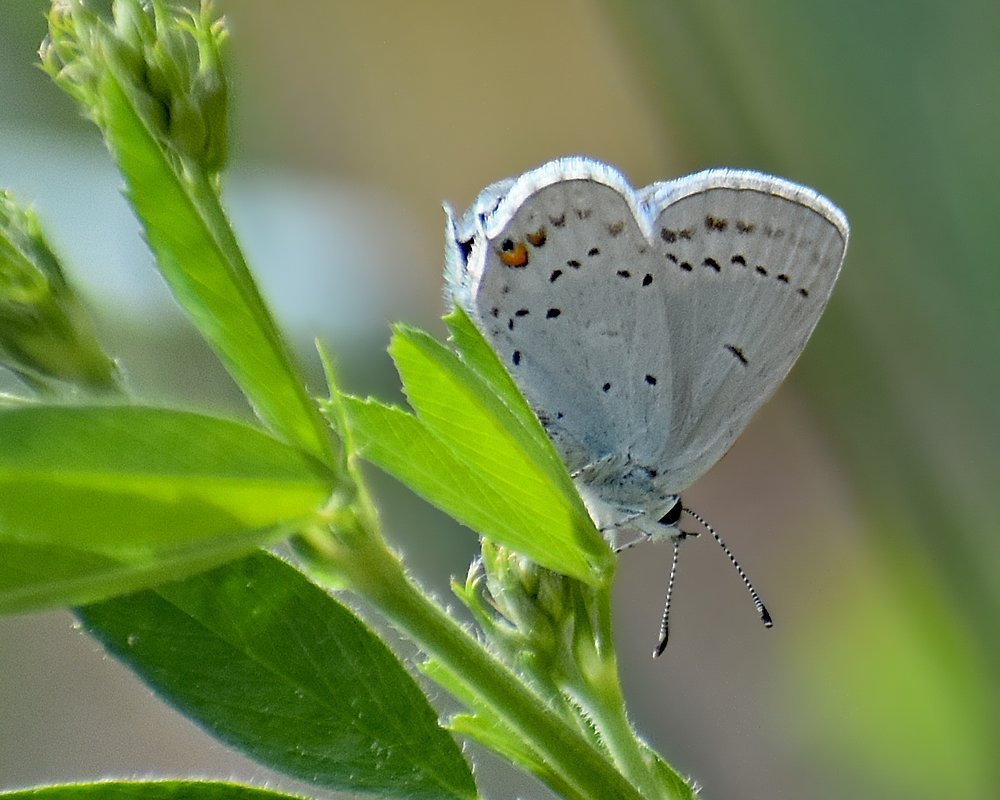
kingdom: Animalia
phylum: Arthropoda
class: Insecta
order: Lepidoptera
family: Lycaenidae
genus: Elkalyce
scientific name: Elkalyce comyntas
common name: Eastern Tailed-Blue
